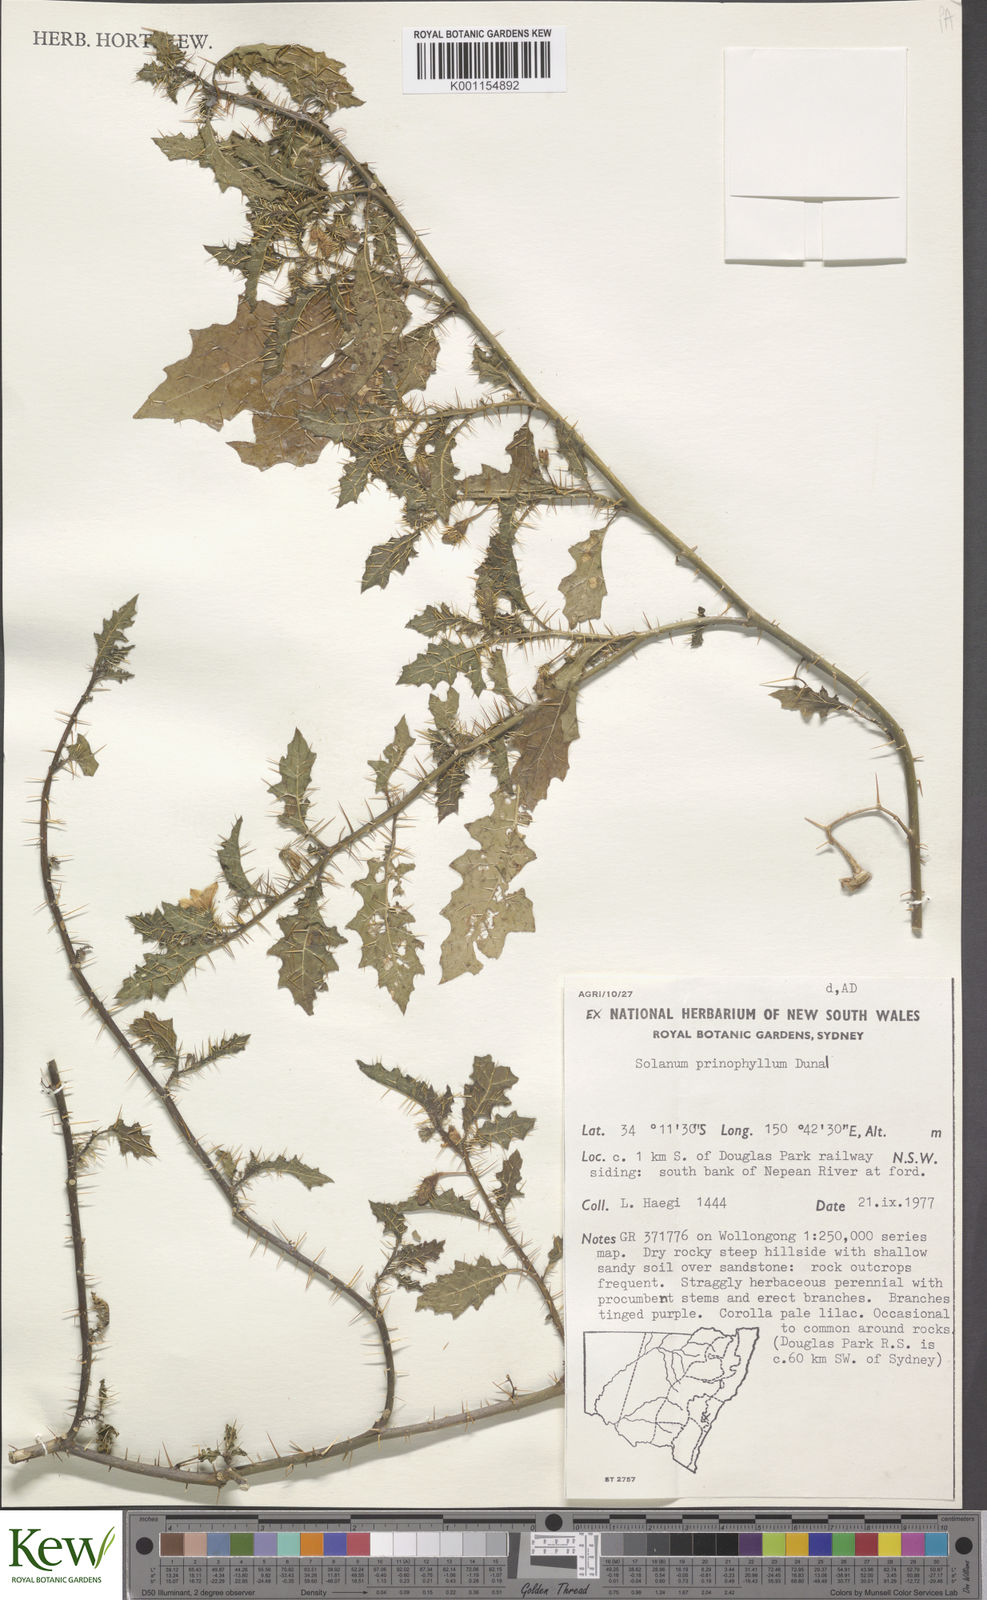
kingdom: Plantae
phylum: Tracheophyta
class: Magnoliopsida
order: Solanales
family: Solanaceae
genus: Solanum
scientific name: Solanum prinophyllum
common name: Forest nightshade
